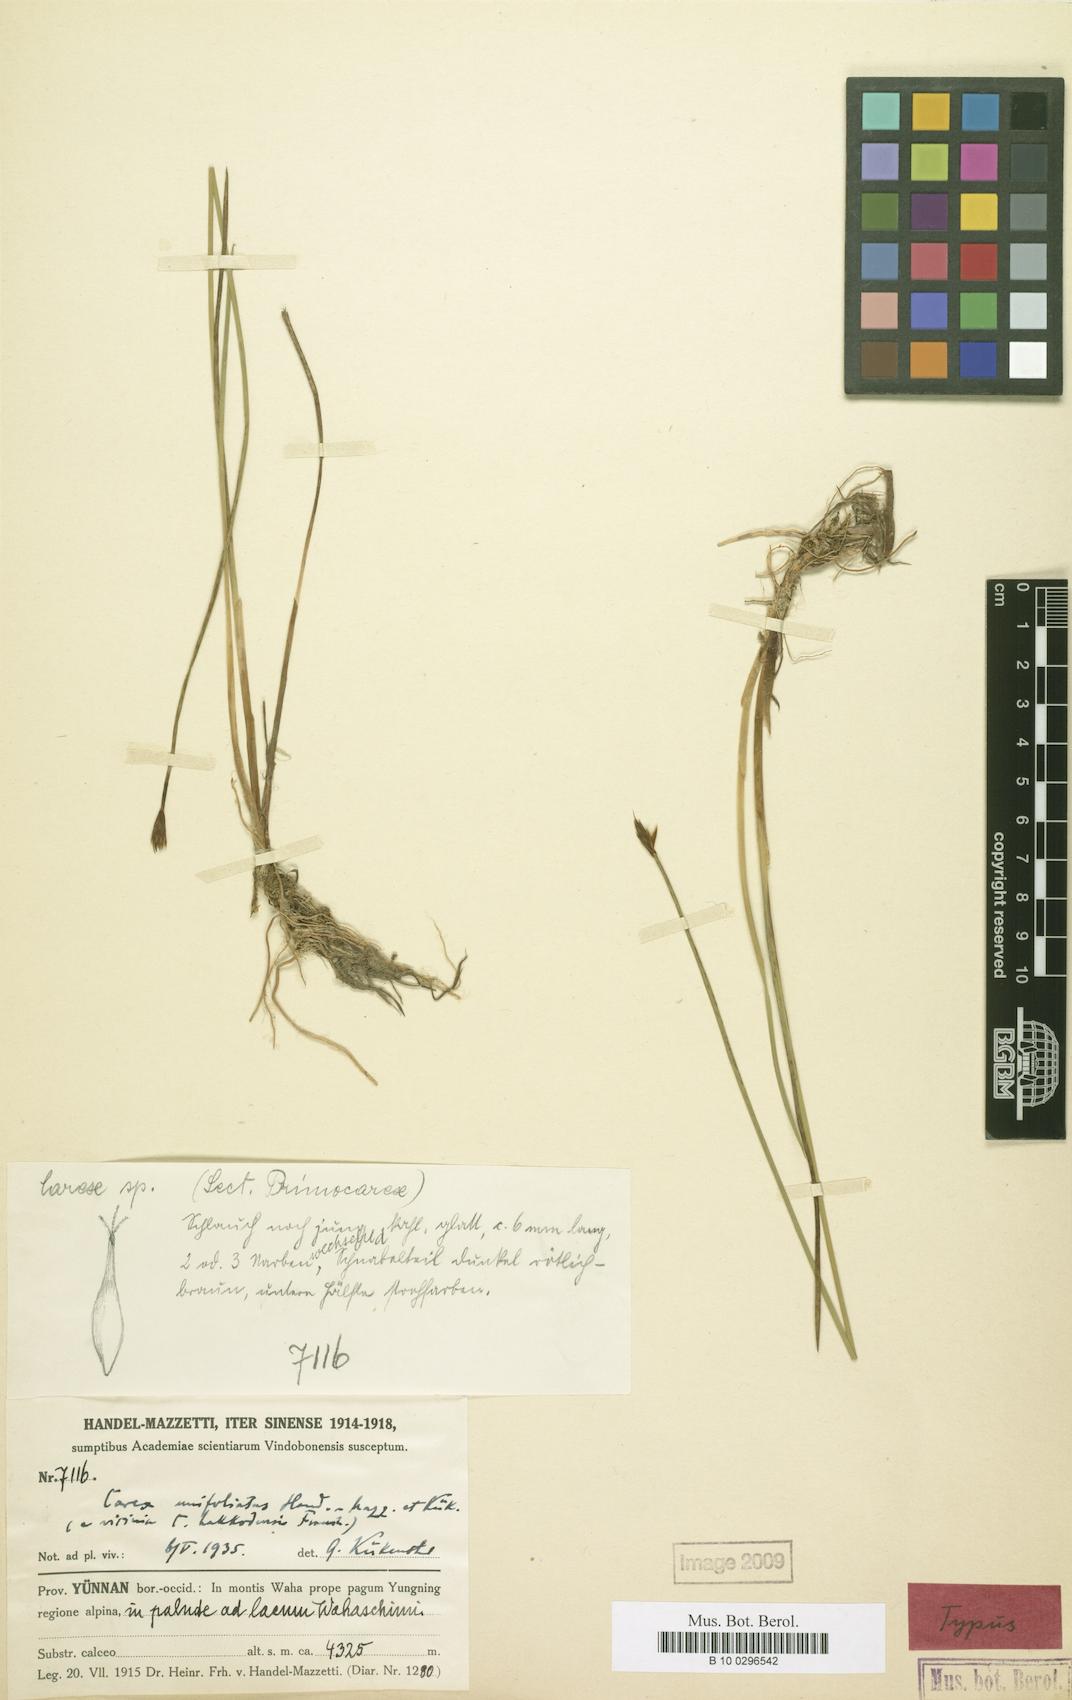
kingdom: Plantae
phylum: Tracheophyta
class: Liliopsida
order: Poales
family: Cyperaceae
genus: Carex
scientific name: Carex parva
